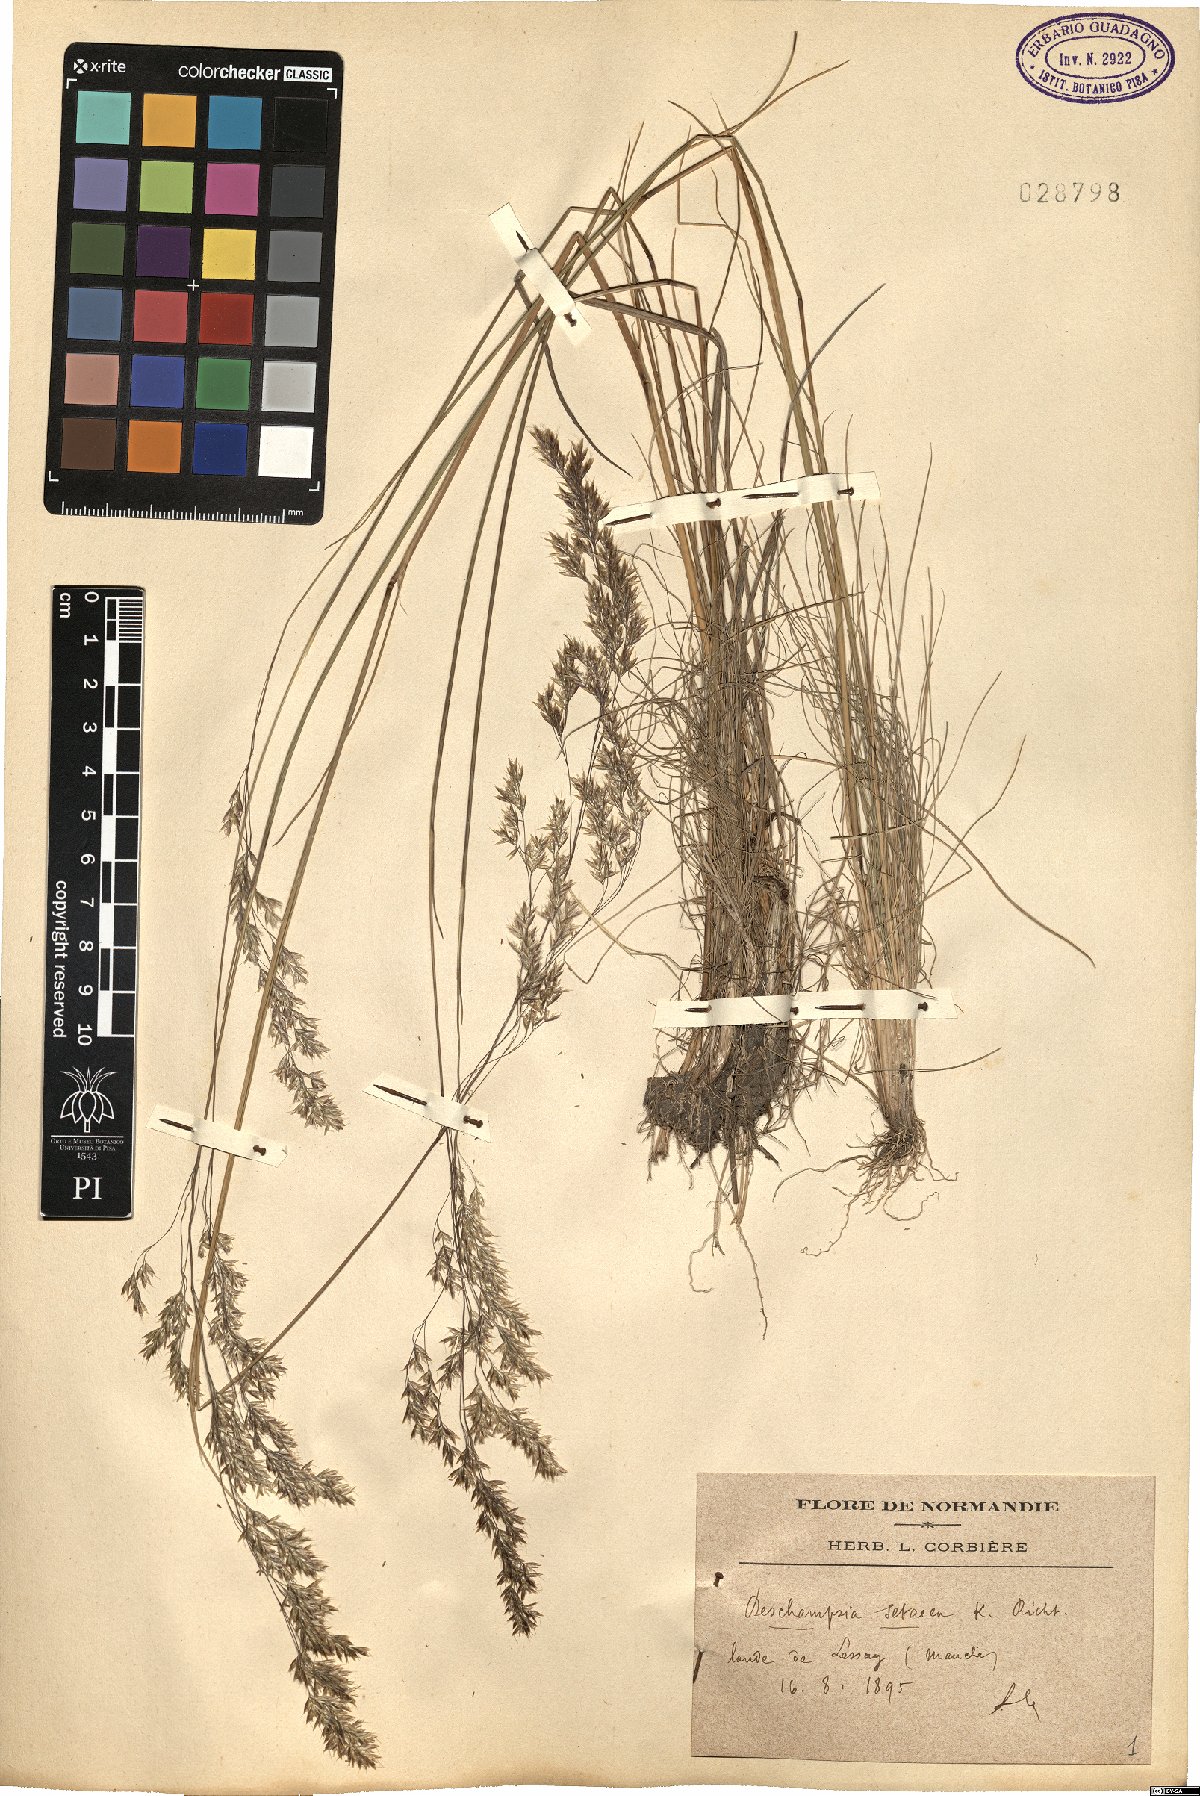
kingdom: Plantae
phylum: Tracheophyta
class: Liliopsida
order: Poales
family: Poaceae
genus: Deschampsia
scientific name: Deschampsia setacea
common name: Bog hair-grass
